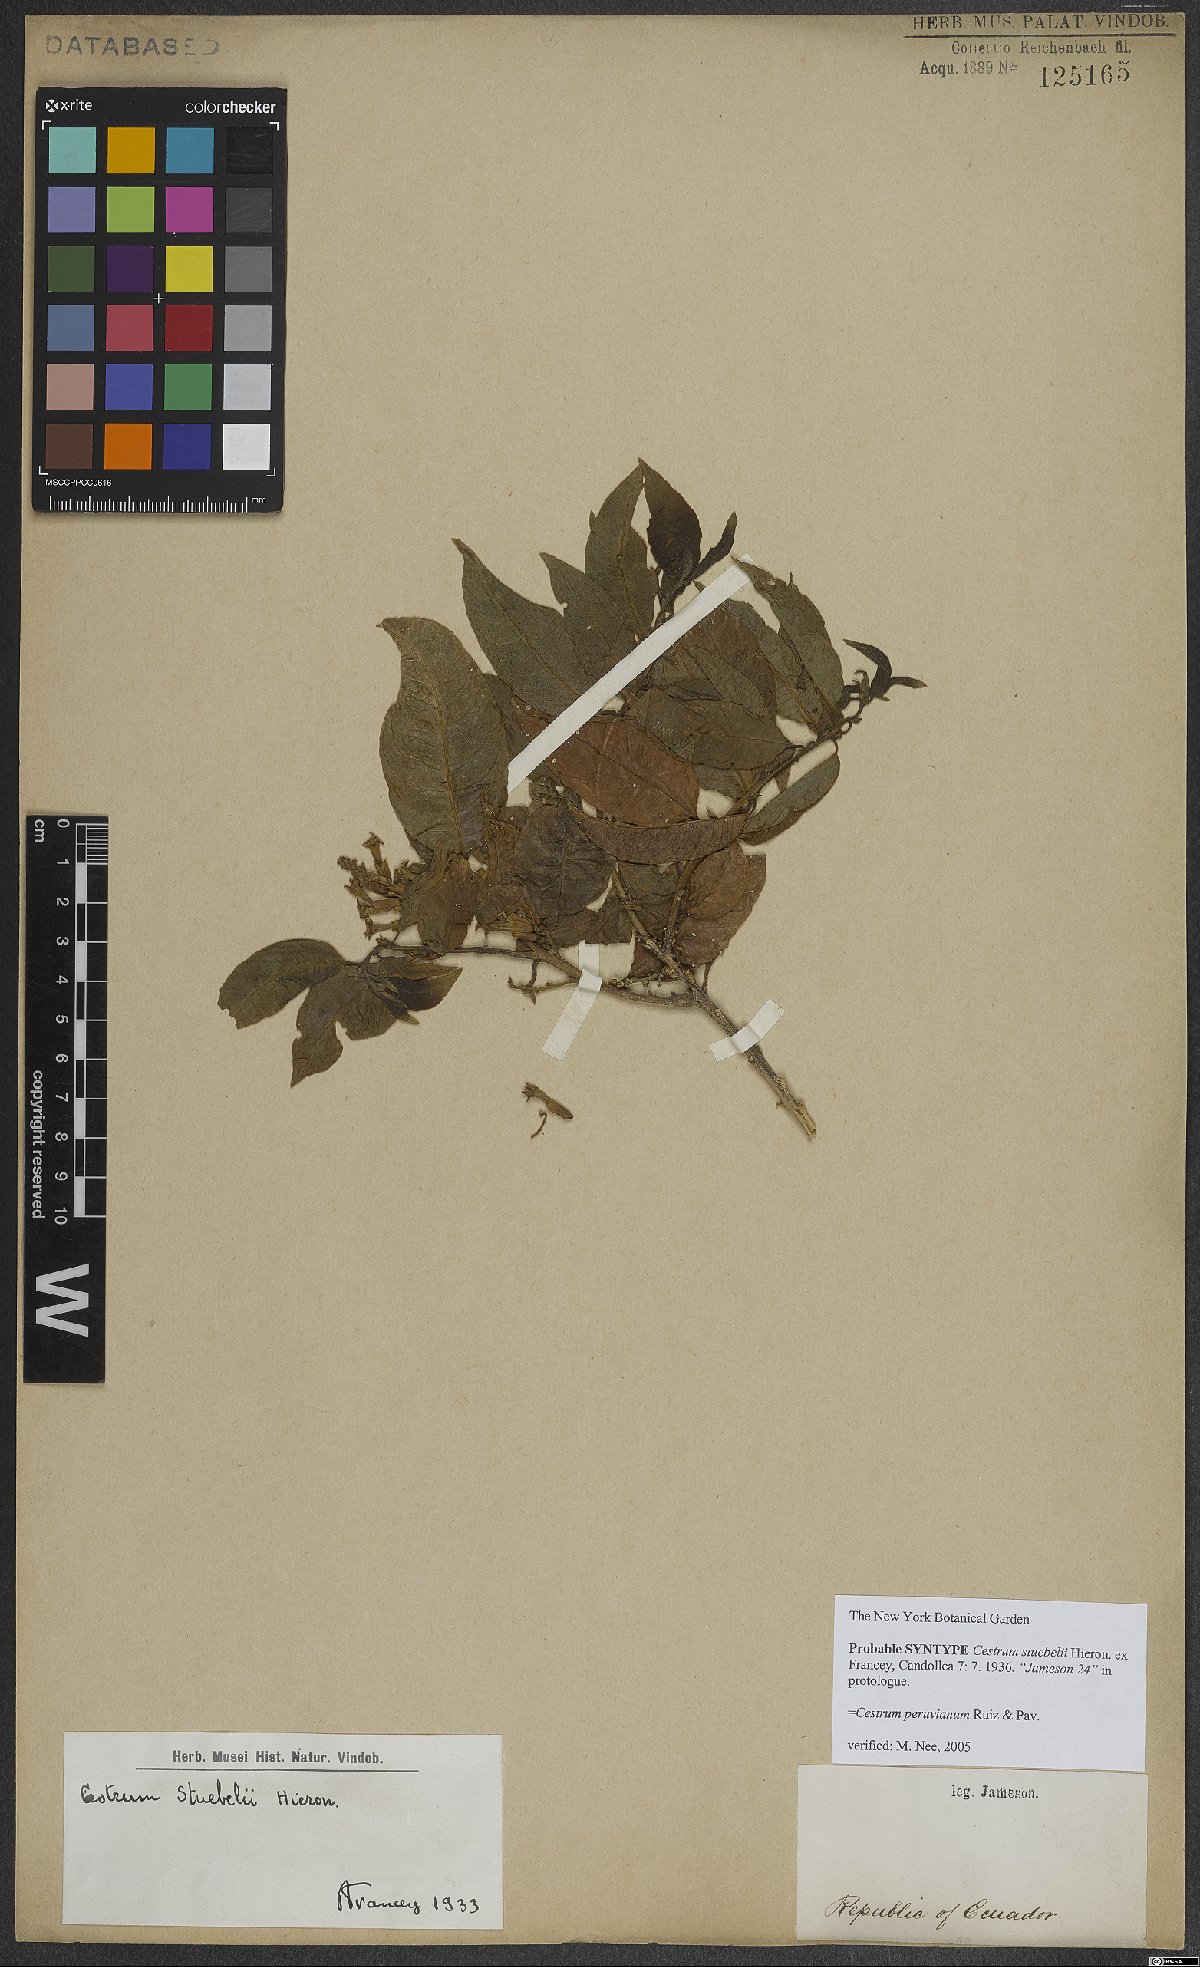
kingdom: Plantae
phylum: Tracheophyta
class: Magnoliopsida
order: Solanales
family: Solanaceae
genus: Cestrum
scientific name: Cestrum peruvianum
